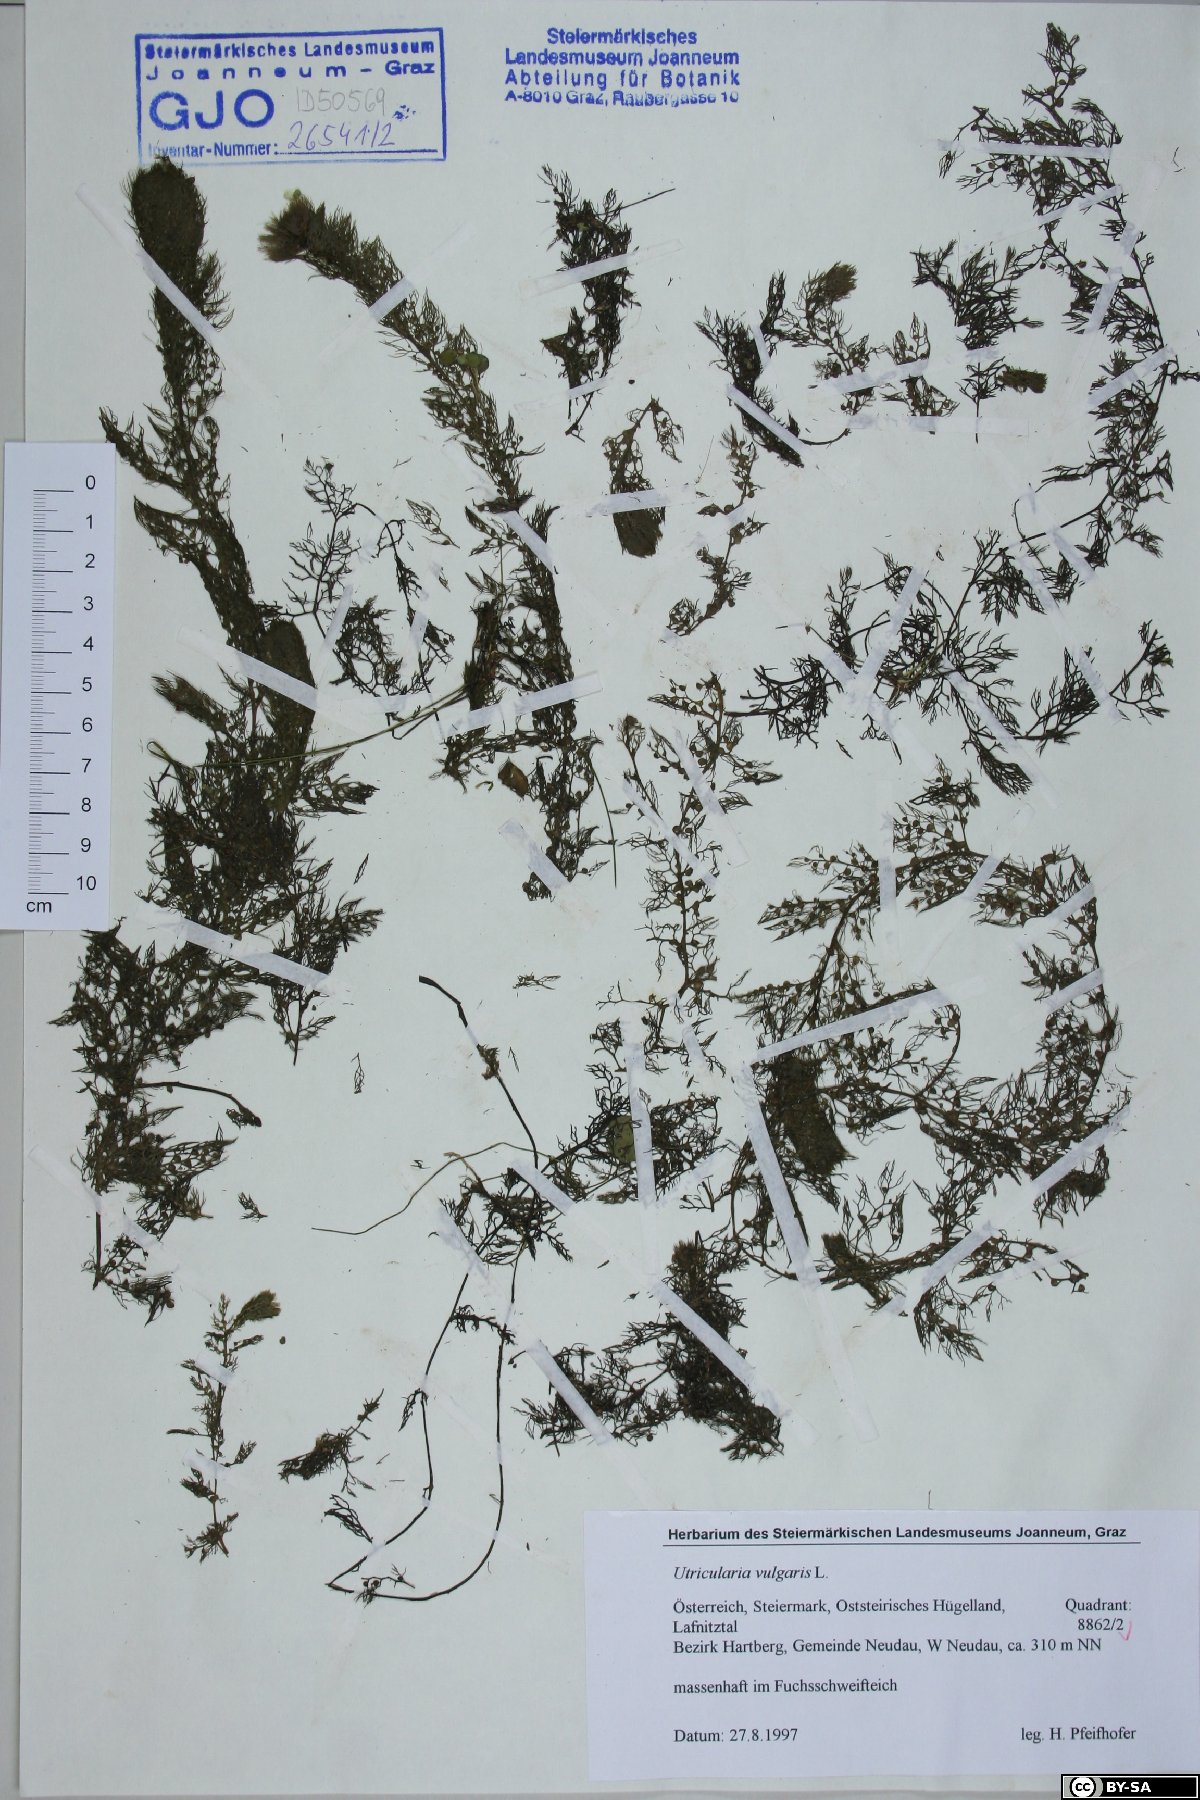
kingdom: Plantae
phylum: Tracheophyta
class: Magnoliopsida
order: Lamiales
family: Lentibulariaceae
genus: Utricularia
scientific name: Utricularia vulgaris
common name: Greater bladderwort
